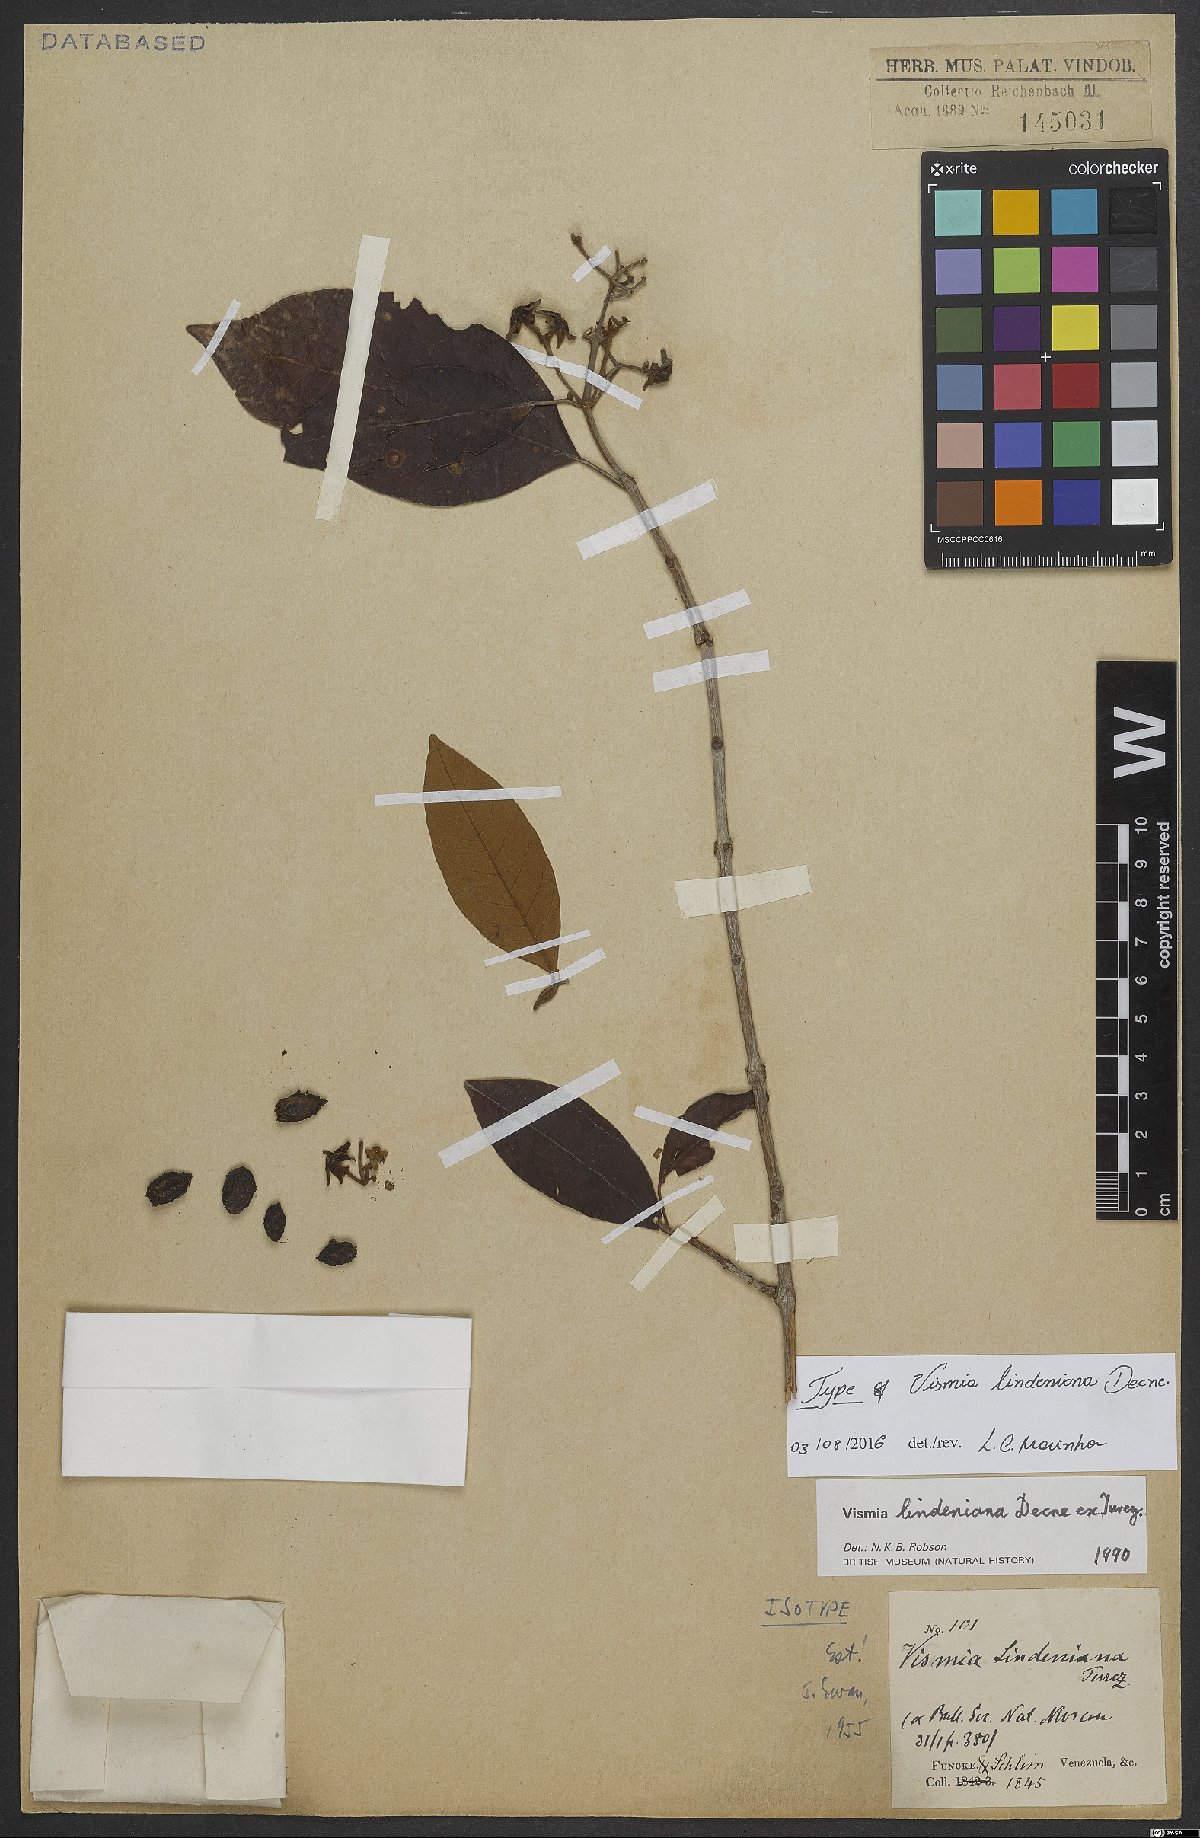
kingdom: Plantae
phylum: Tracheophyta
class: Magnoliopsida
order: Malpighiales
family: Hypericaceae
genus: Vismia
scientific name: Vismia lindeniana
